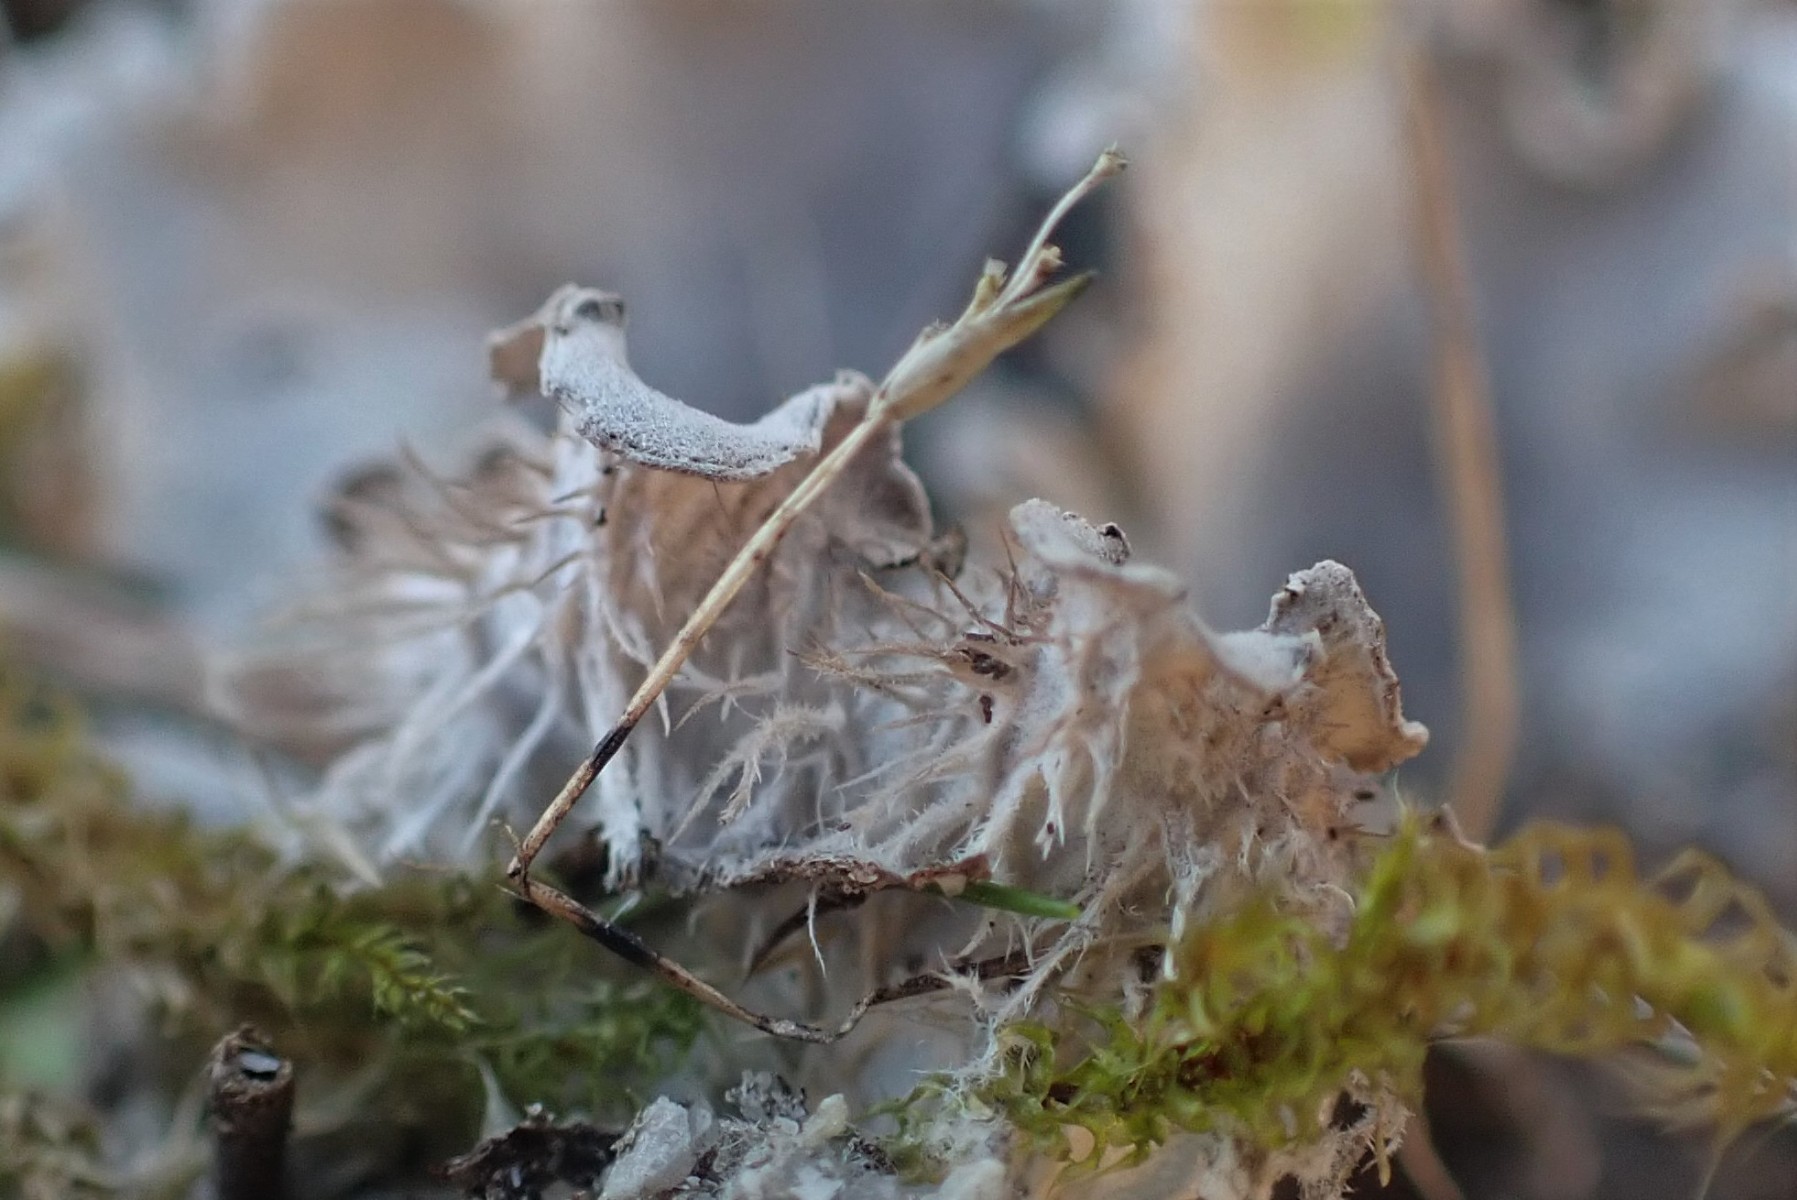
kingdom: Fungi
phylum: Ascomycota
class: Lecanoromycetes
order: Peltigerales
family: Peltigeraceae
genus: Peltigera
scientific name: Peltigera membranacea
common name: tynd skjoldlav
